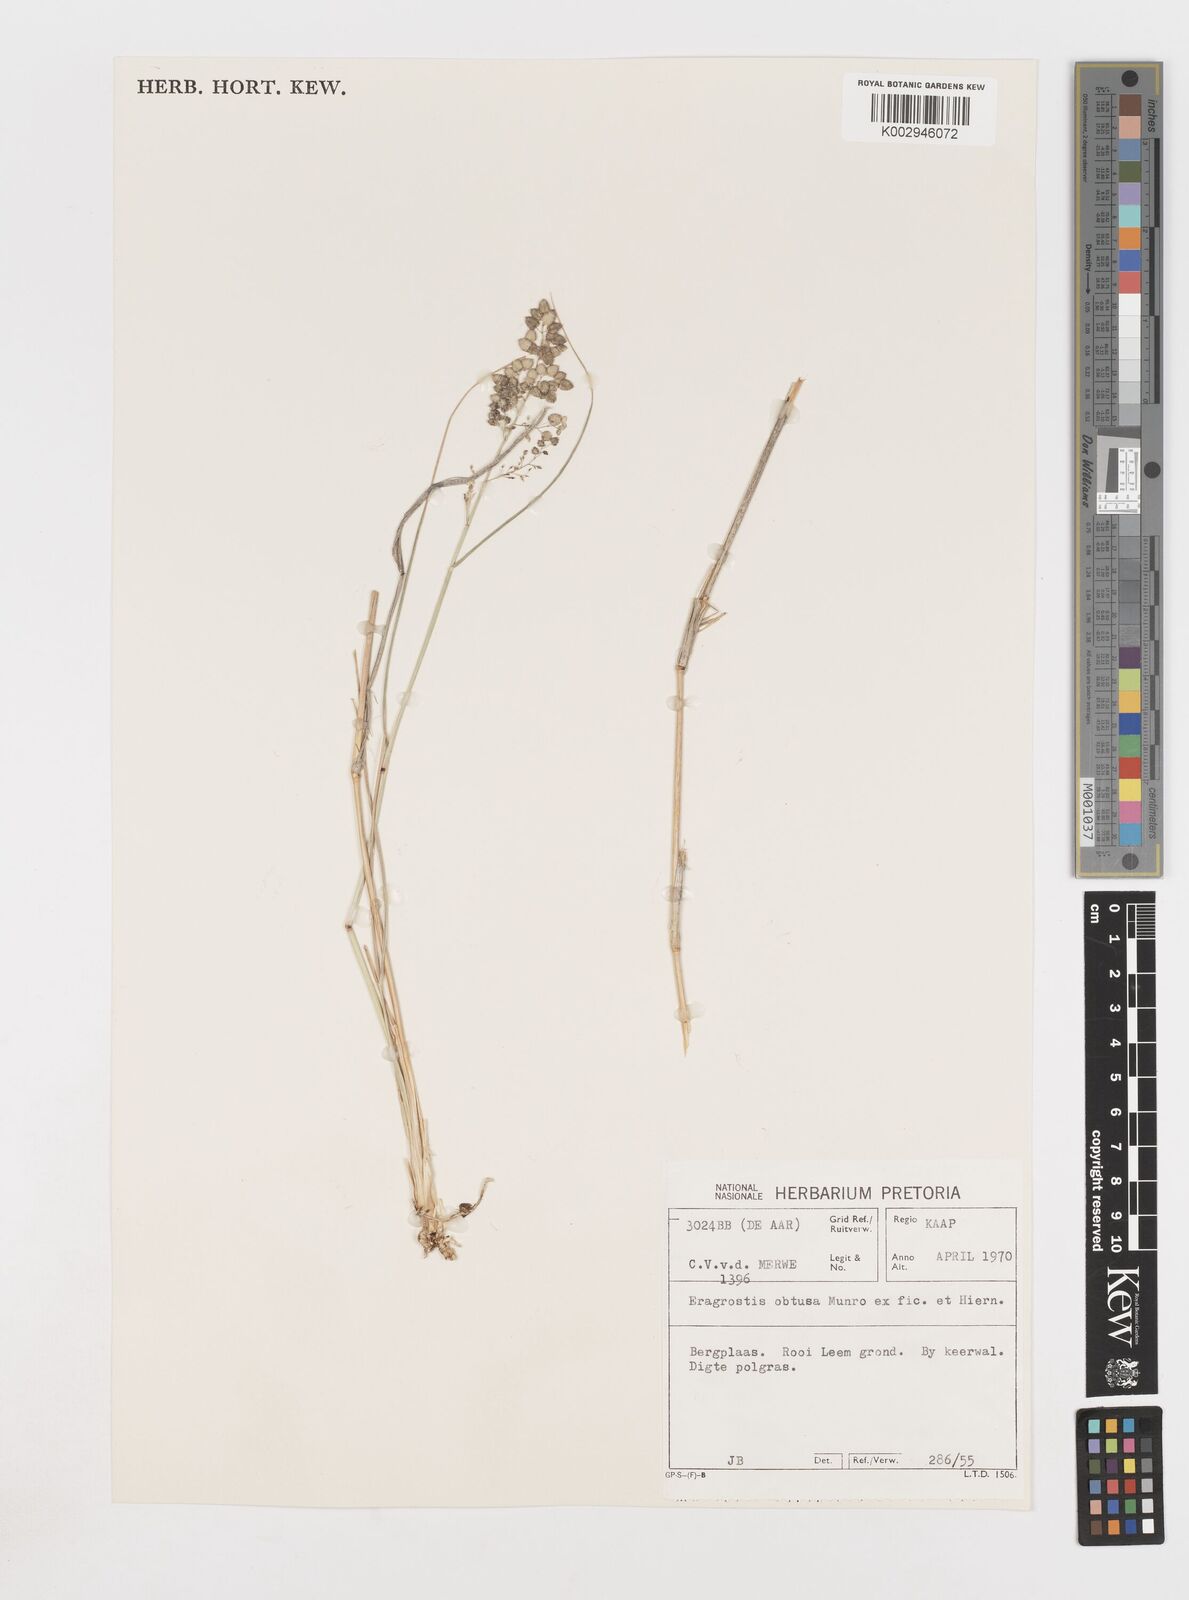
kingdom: Plantae
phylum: Tracheophyta
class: Liliopsida
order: Poales
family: Poaceae
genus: Eragrostis
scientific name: Eragrostis obtusa
